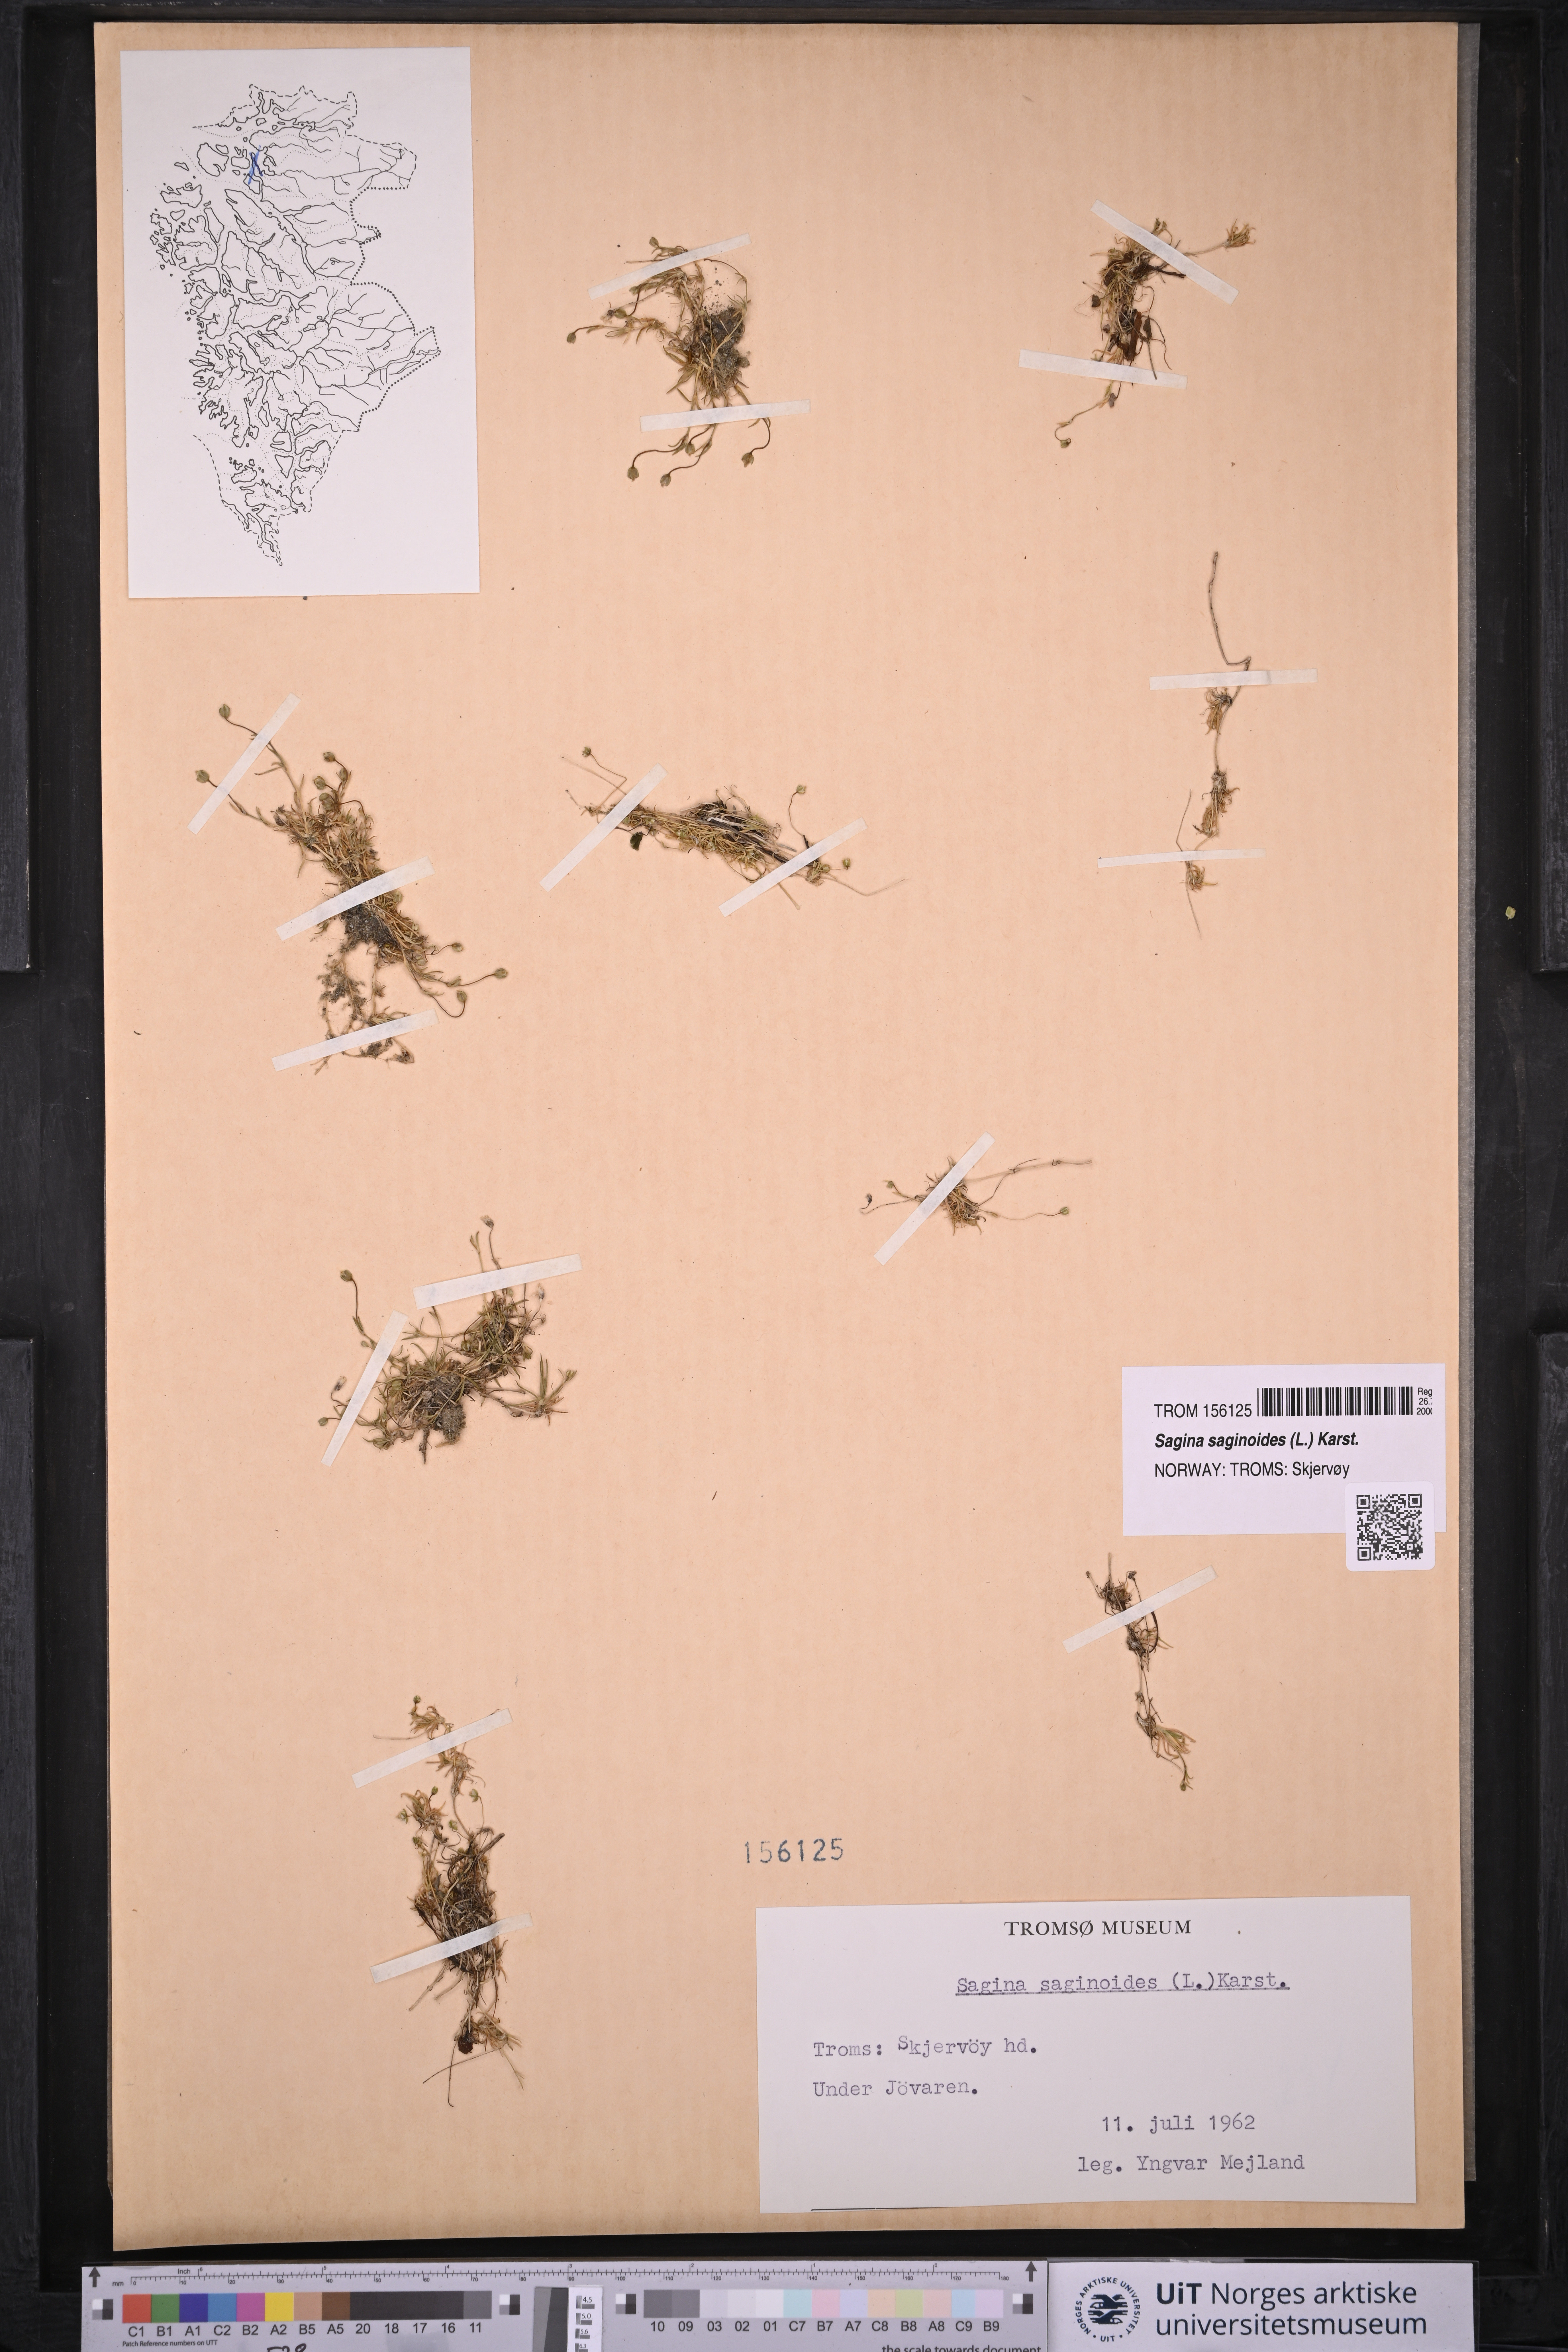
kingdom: Plantae
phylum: Tracheophyta
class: Magnoliopsida
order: Caryophyllales
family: Caryophyllaceae
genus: Sagina
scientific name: Sagina saginoides
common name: Alpine pearlwort
